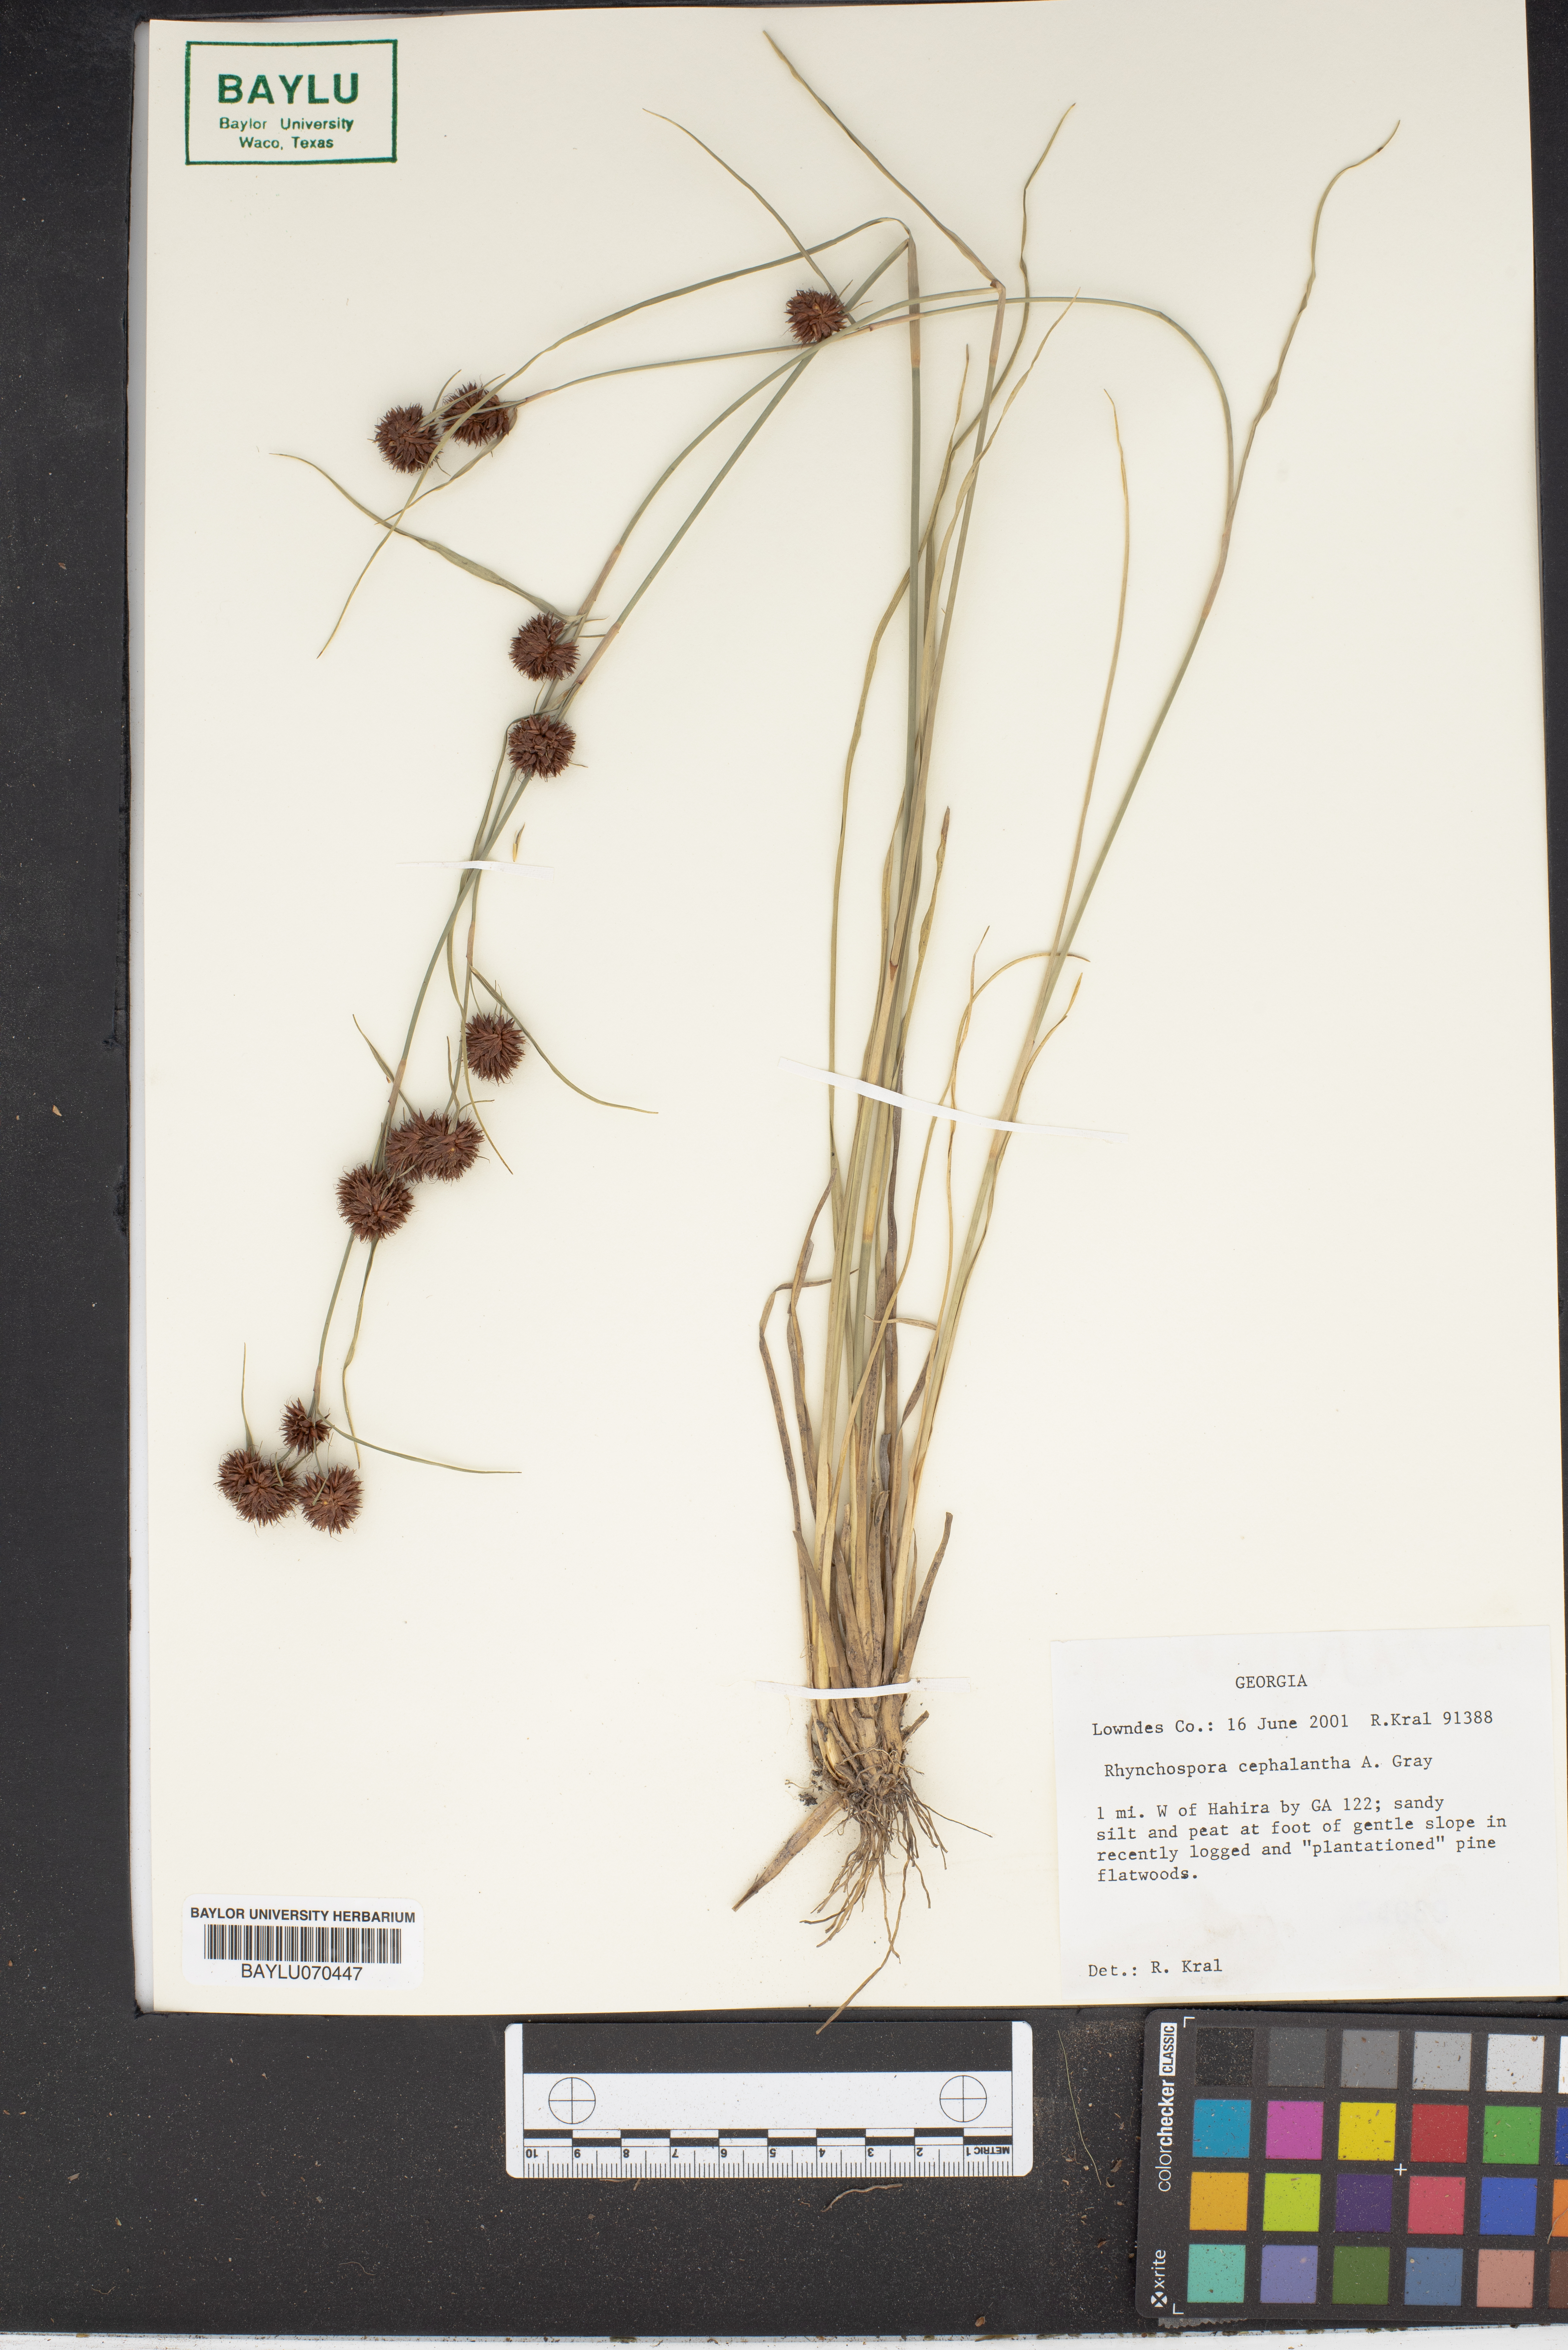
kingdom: Plantae
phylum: Tracheophyta
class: Liliopsida
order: Poales
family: Cyperaceae
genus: Rhynchospora
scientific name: Rhynchospora cephalantha
